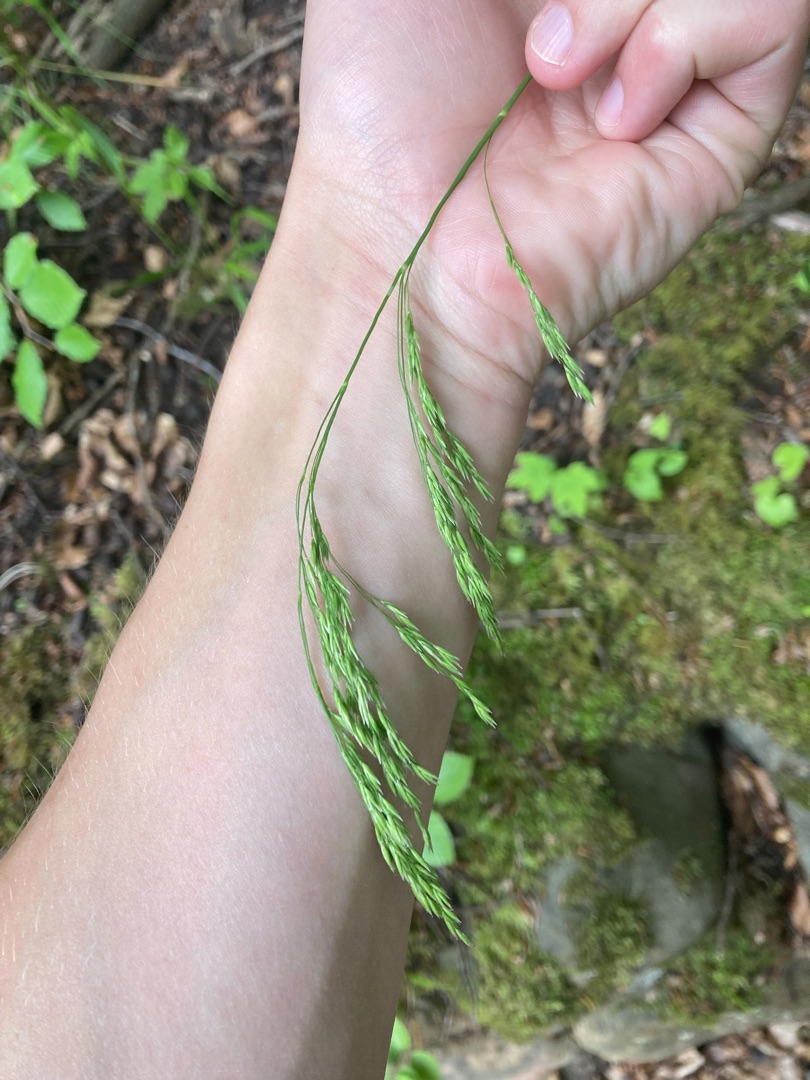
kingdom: Plantae
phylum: Tracheophyta
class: Liliopsida
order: Poales
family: Poaceae
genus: Festuca
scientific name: Festuca altissima
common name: Skov-svingel
